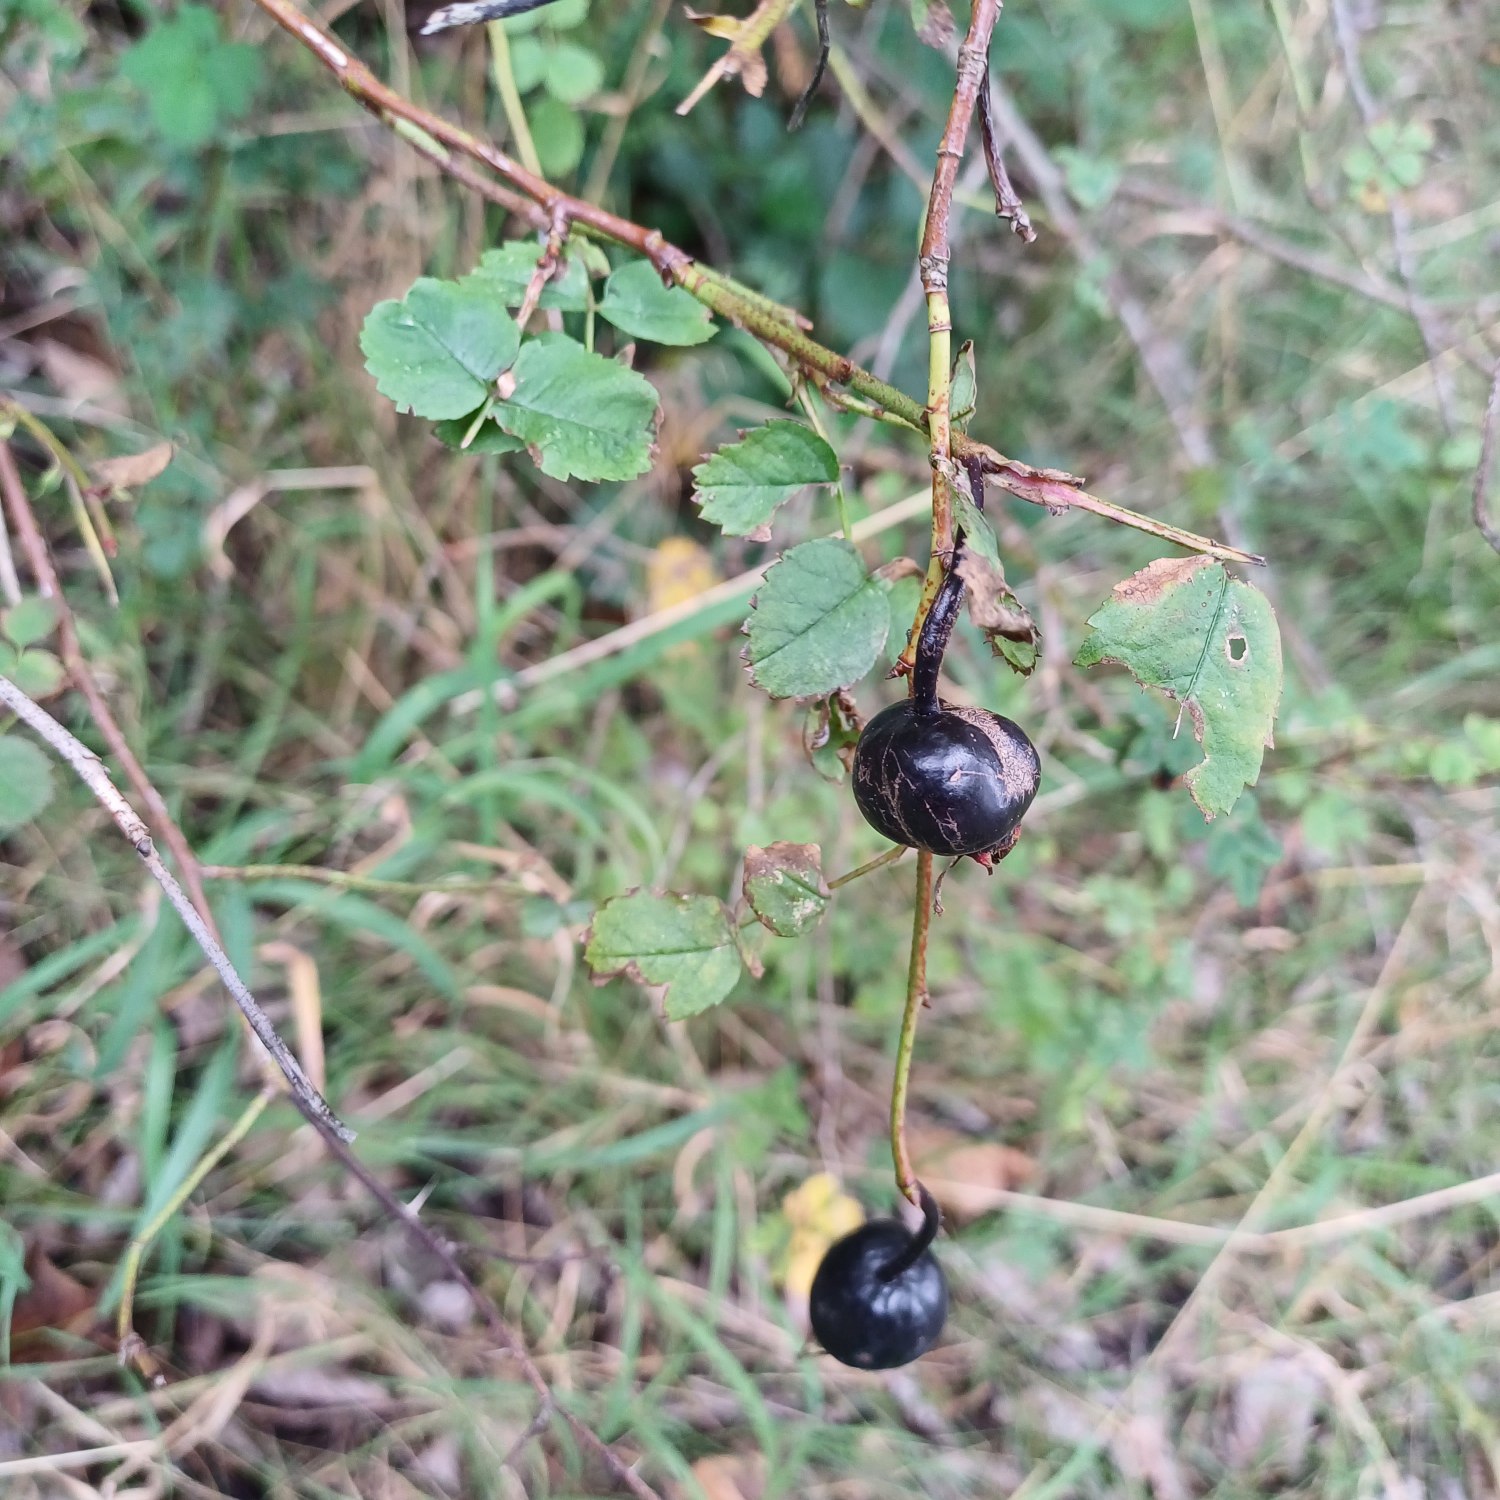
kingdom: Plantae
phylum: Tracheophyta
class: Magnoliopsida
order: Rosales
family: Rosaceae
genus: Rosa
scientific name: Rosa spinosissima
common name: Klit-rose
